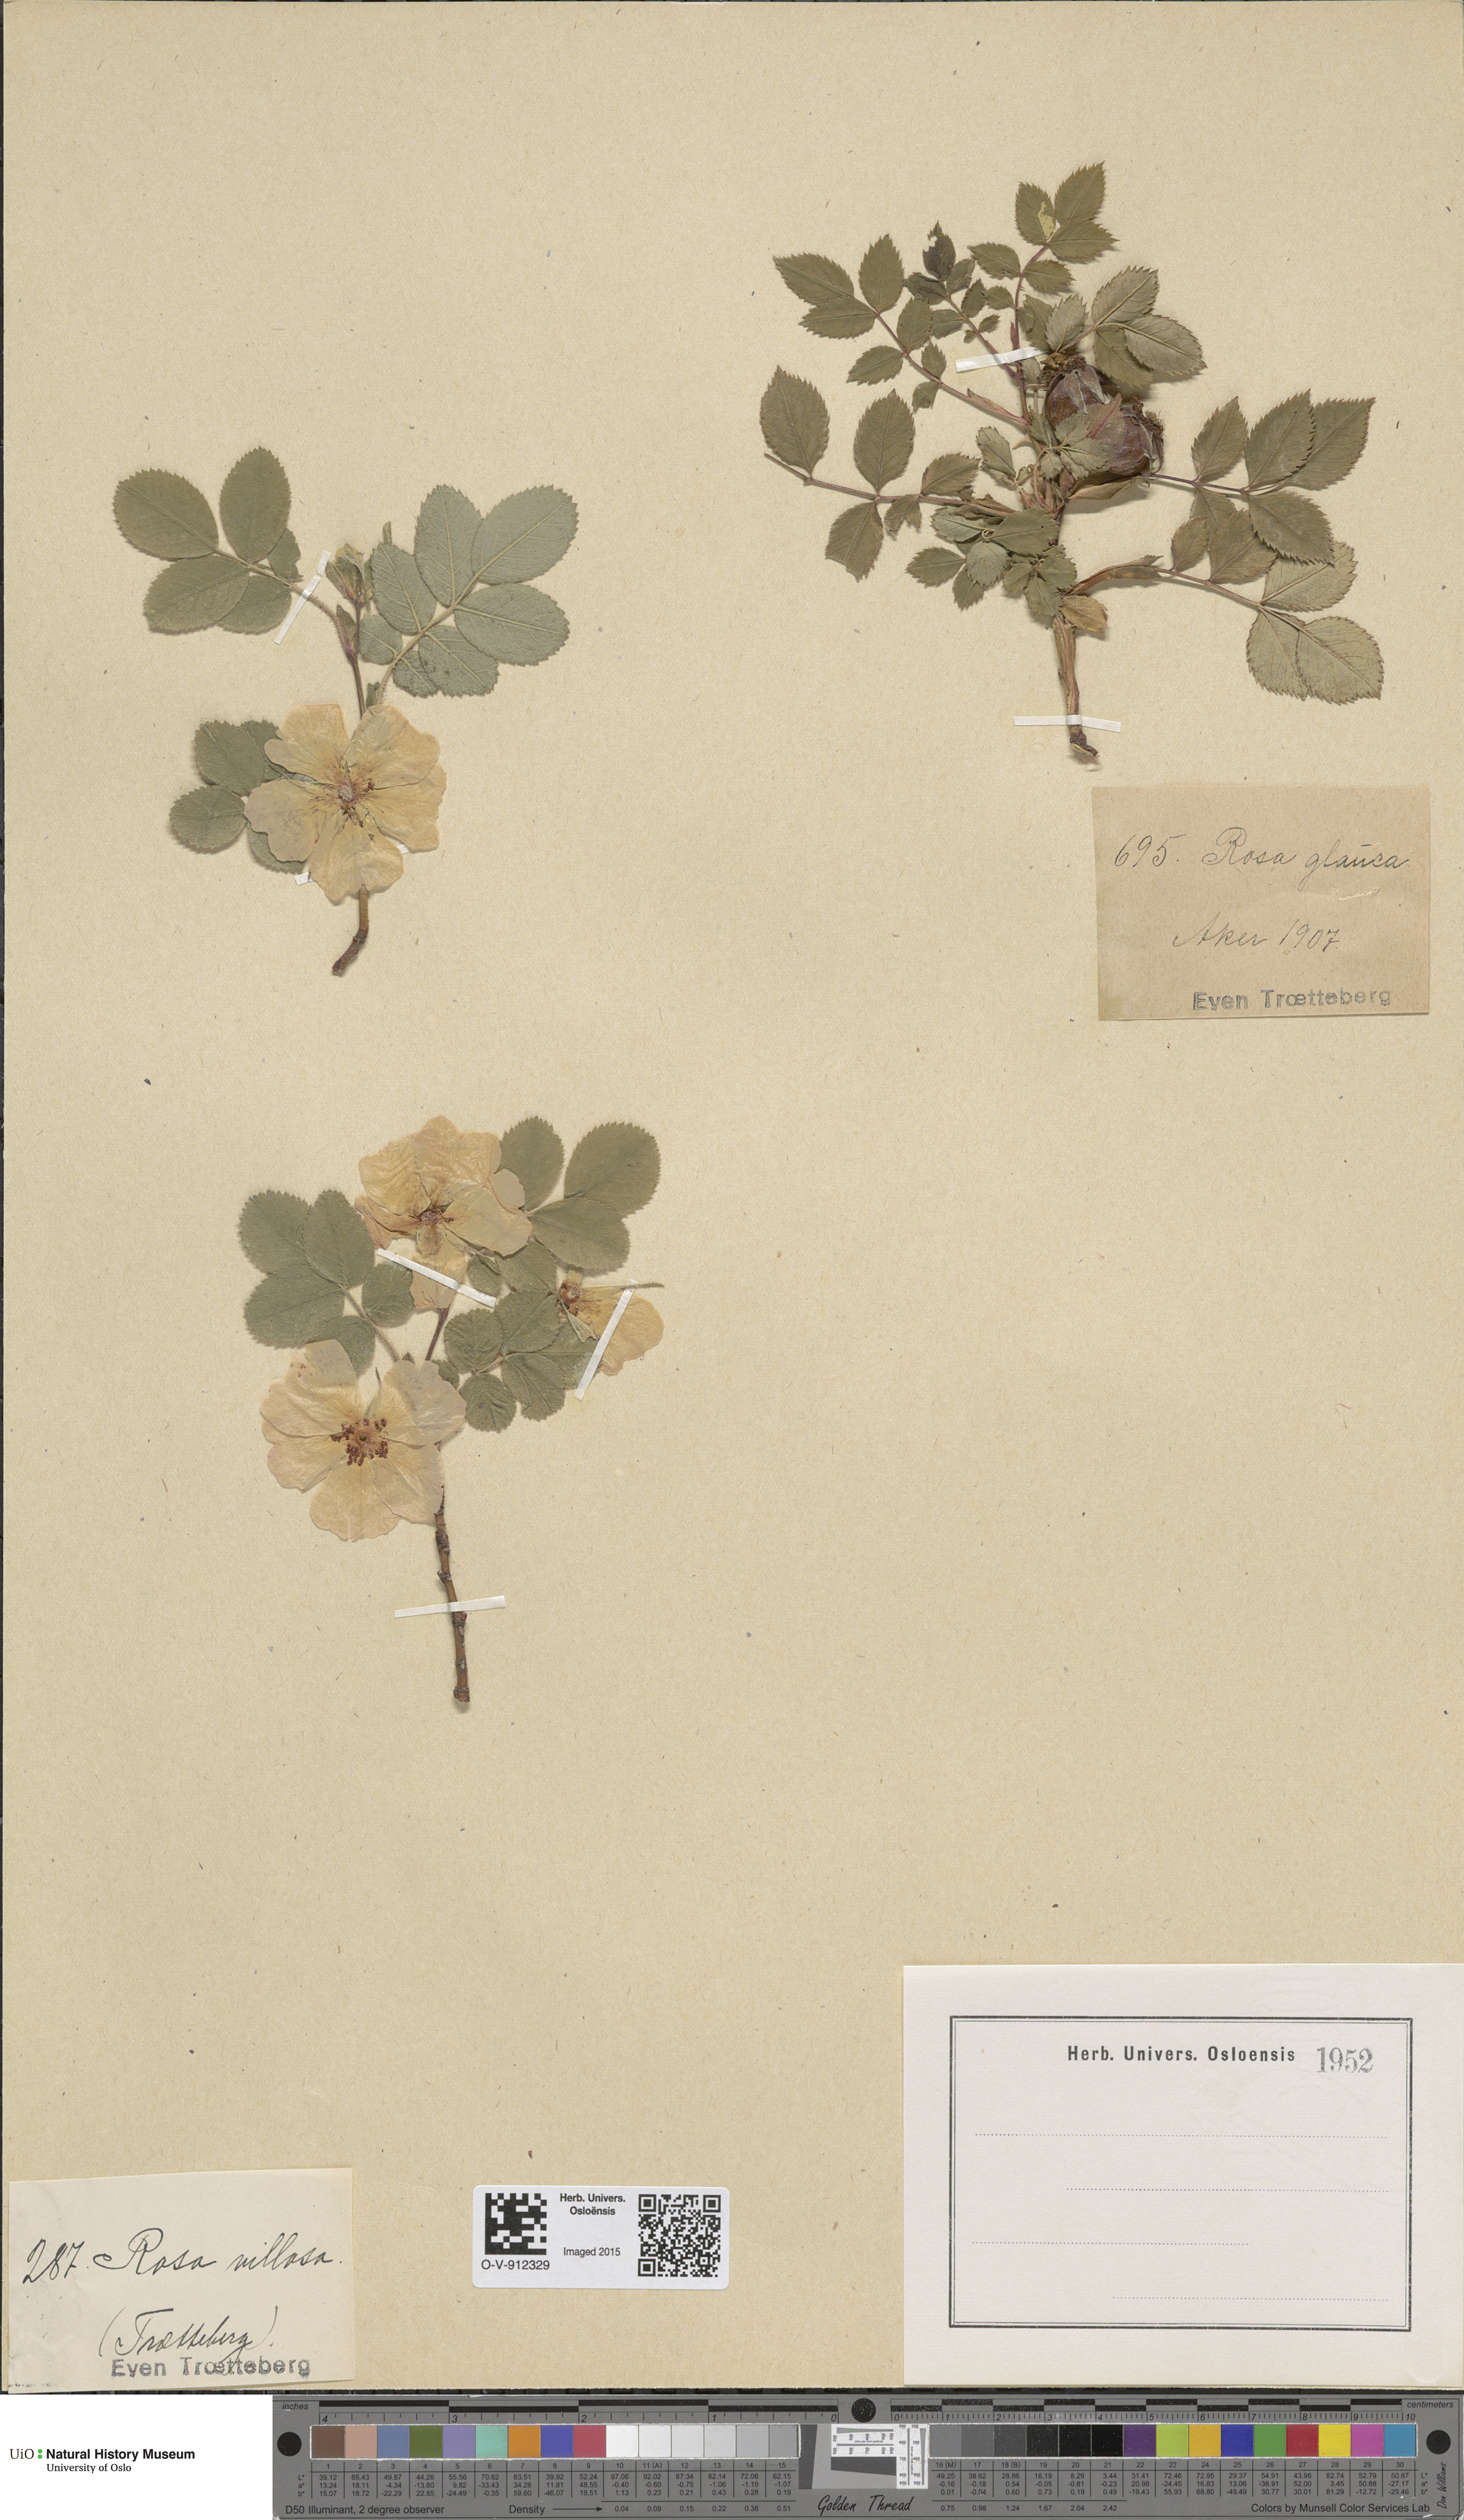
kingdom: Plantae
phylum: Tracheophyta
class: Magnoliopsida
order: Rosales
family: Rosaceae
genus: Rosa
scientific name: Rosa villosa
